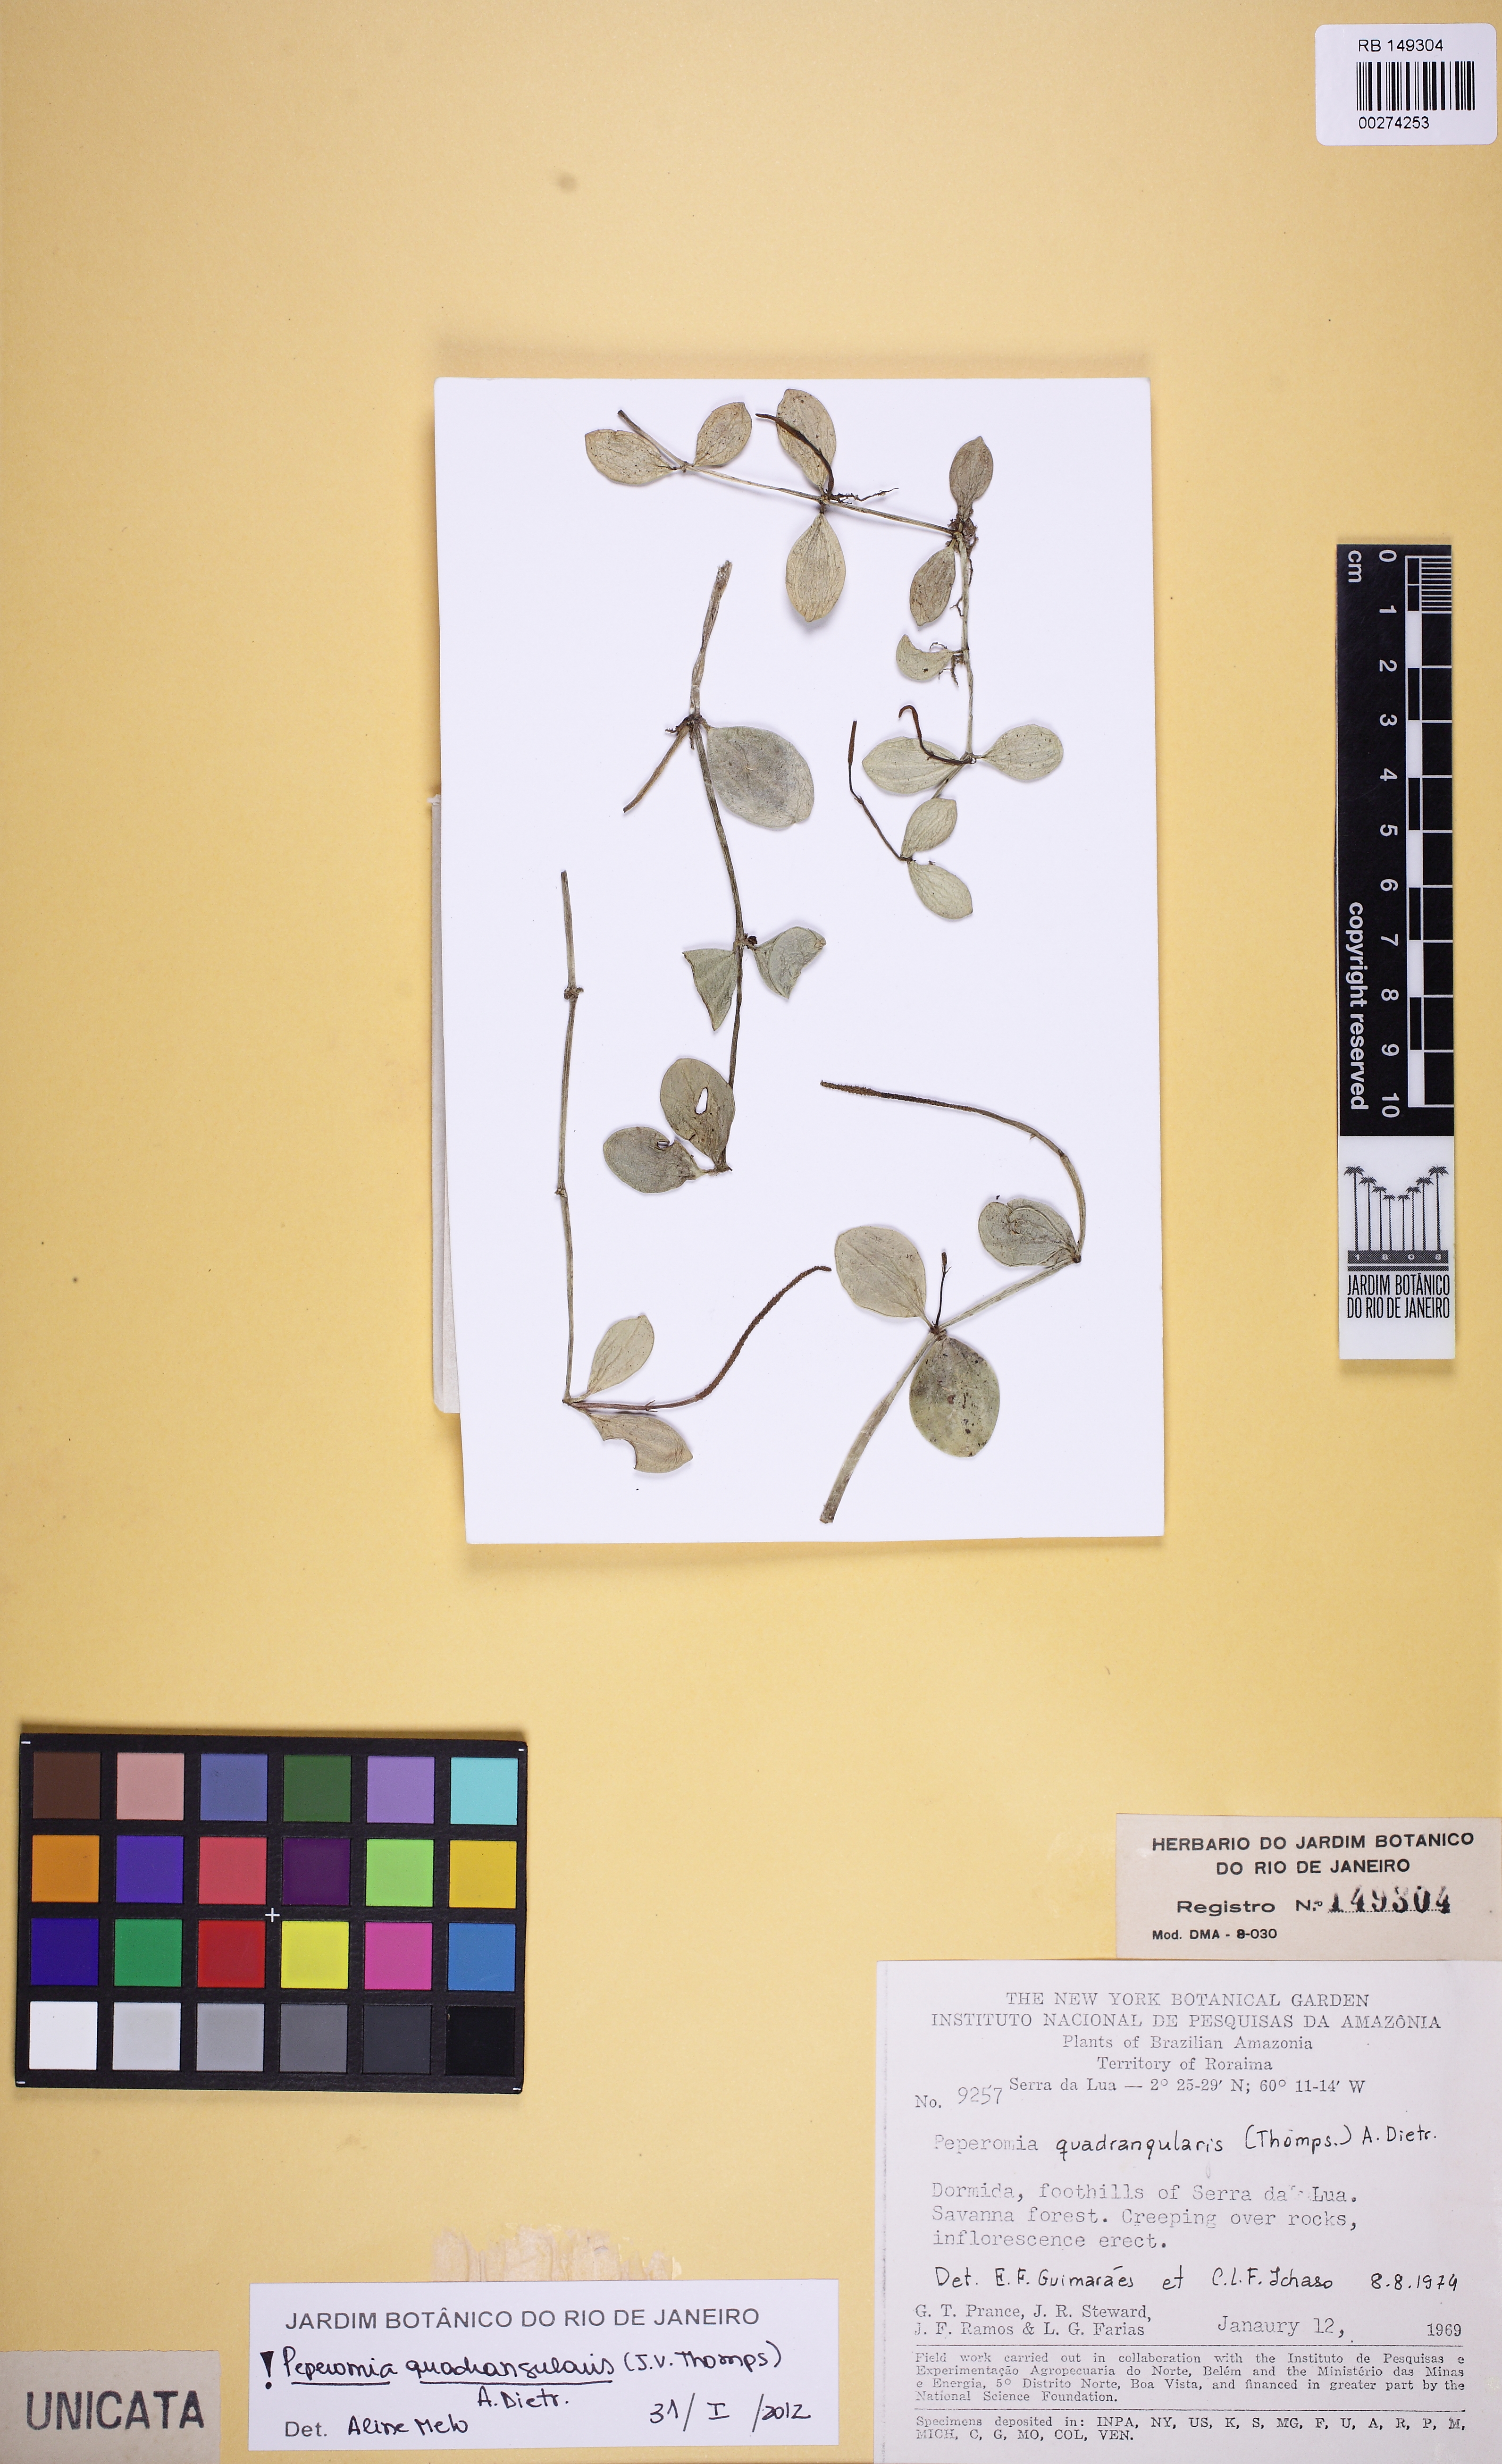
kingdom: Plantae
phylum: Tracheophyta
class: Magnoliopsida
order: Piperales
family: Piperaceae
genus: Peperomia
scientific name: Peperomia quadrangularis
